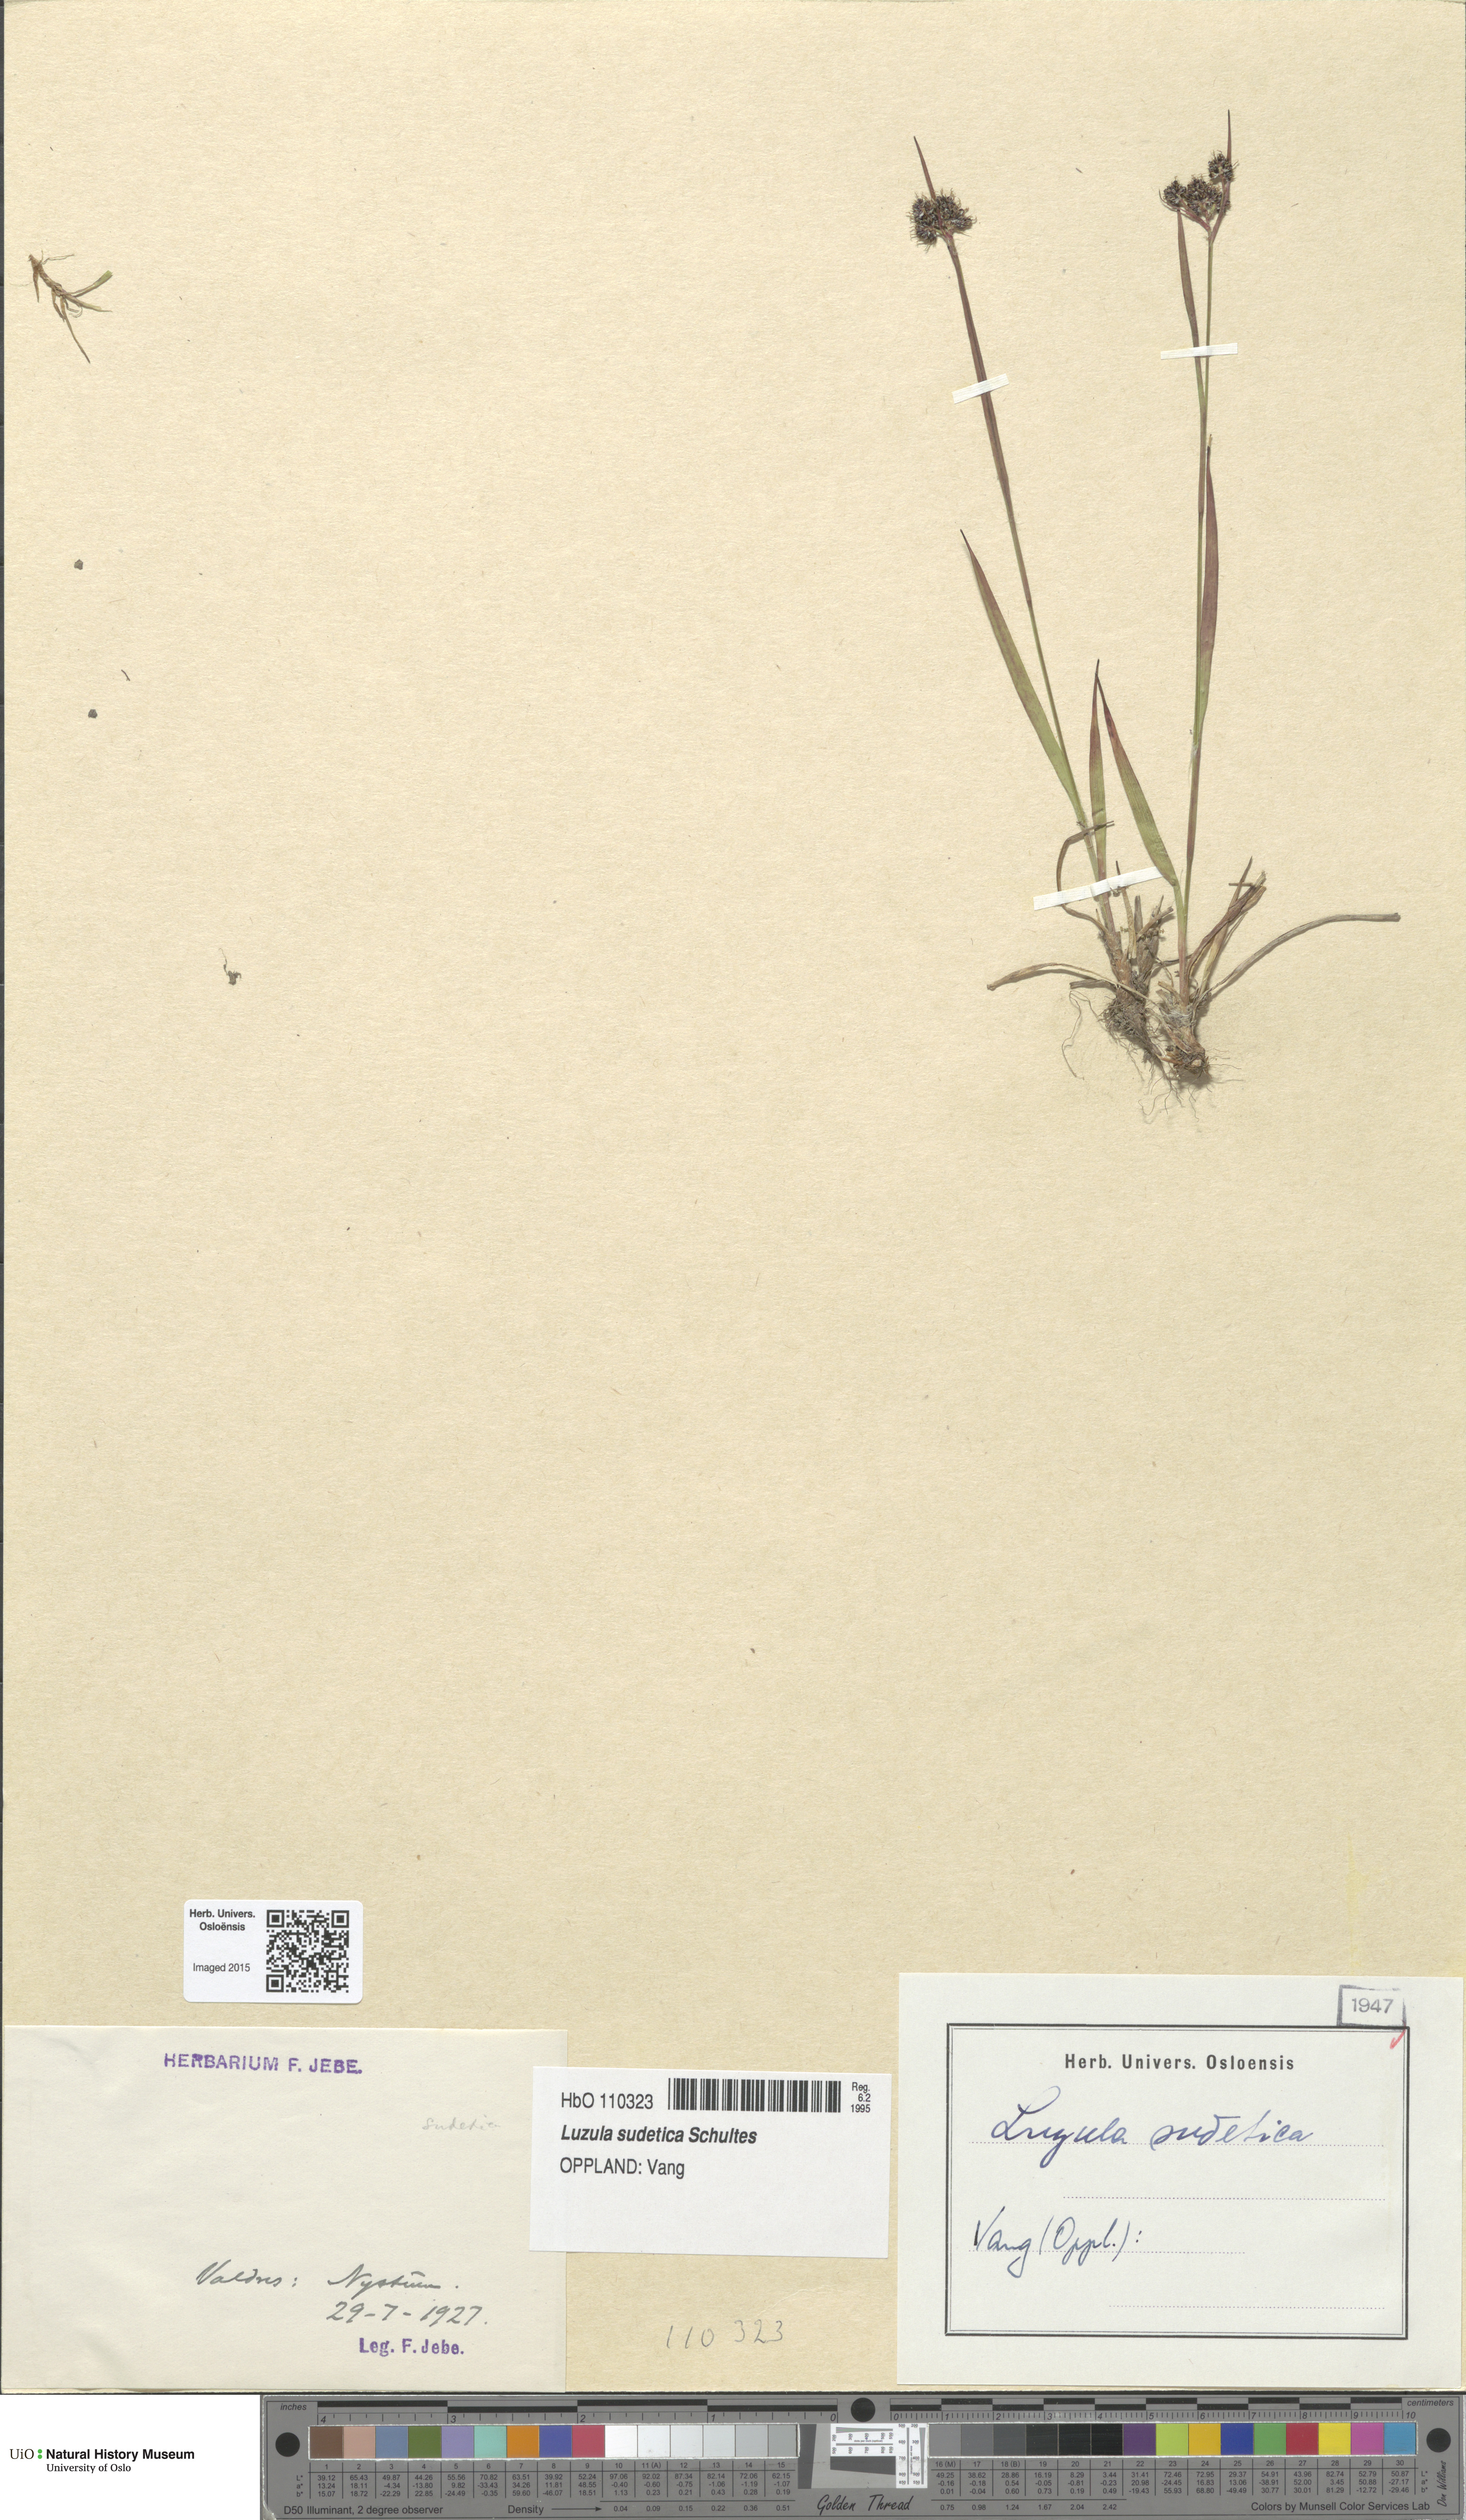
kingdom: Plantae
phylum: Tracheophyta
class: Liliopsida
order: Poales
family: Juncaceae
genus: Luzula
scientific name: Luzula sudetica
